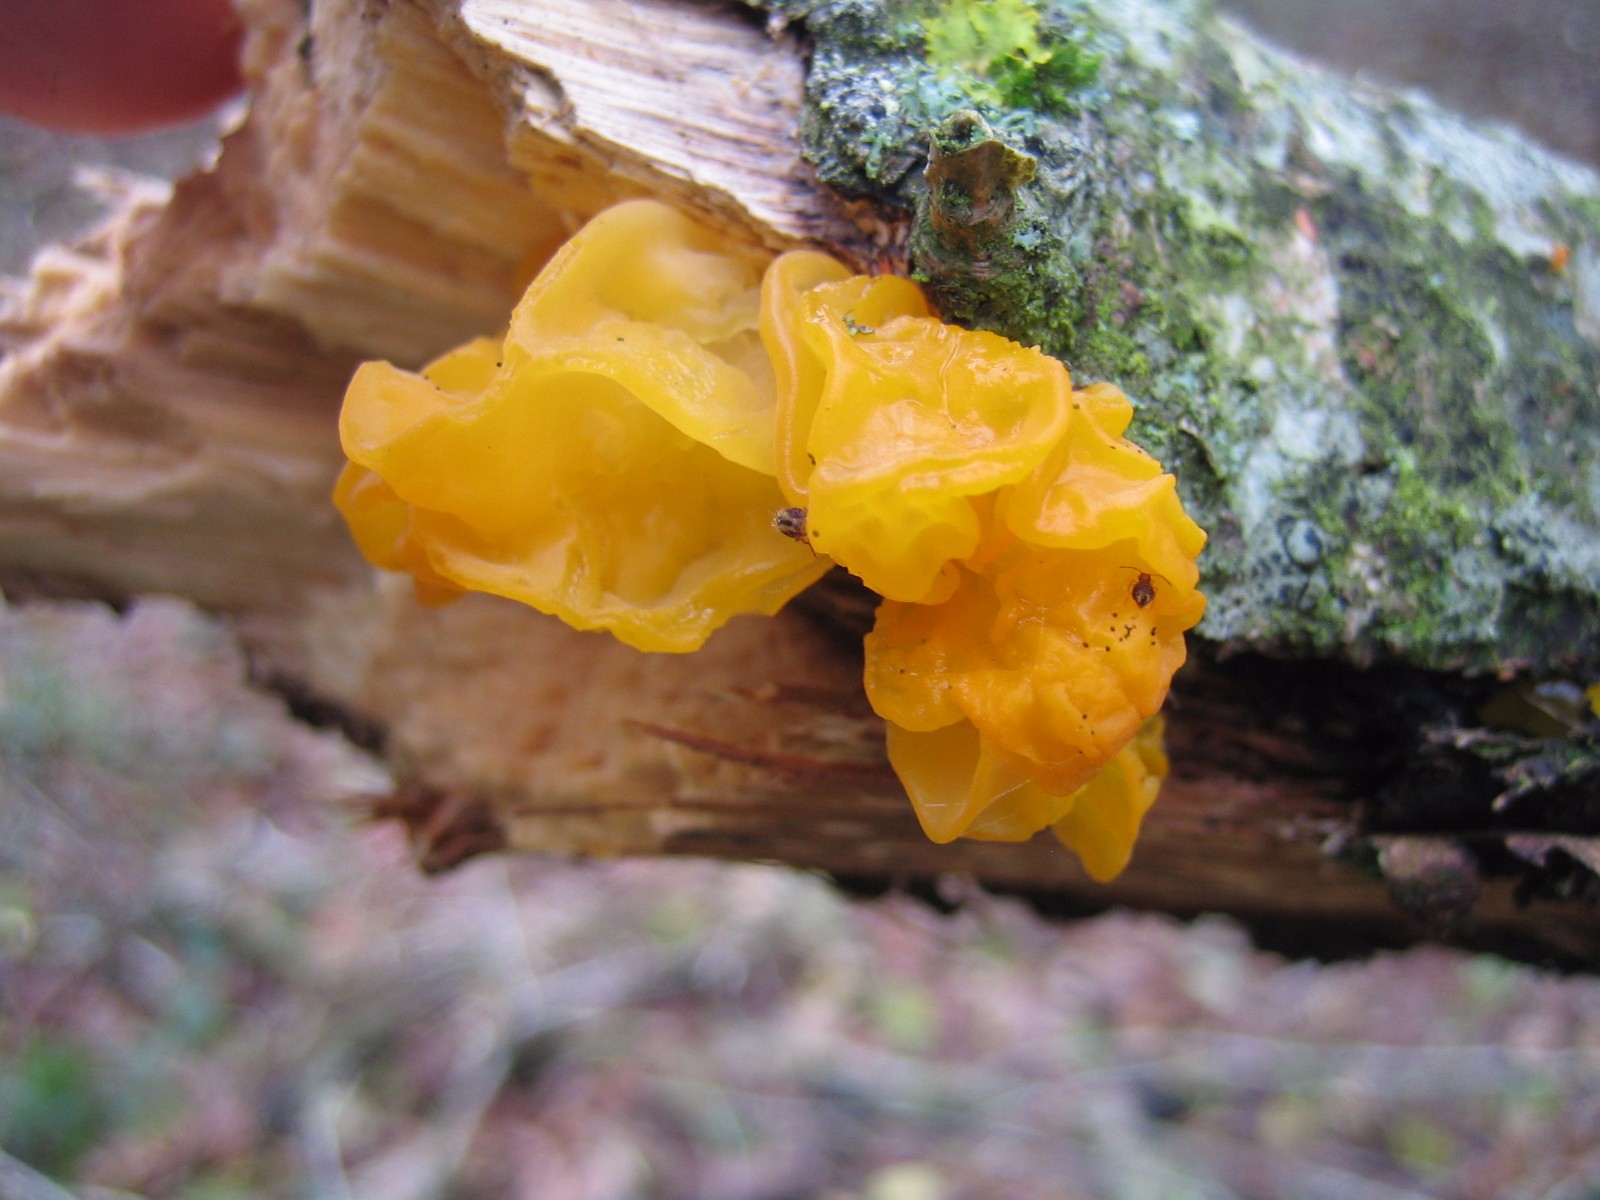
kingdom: Fungi
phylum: Basidiomycota
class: Tremellomycetes
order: Tremellales
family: Tremellaceae
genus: Tremella
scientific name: Tremella mesenterica
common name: gul bævresvamp
